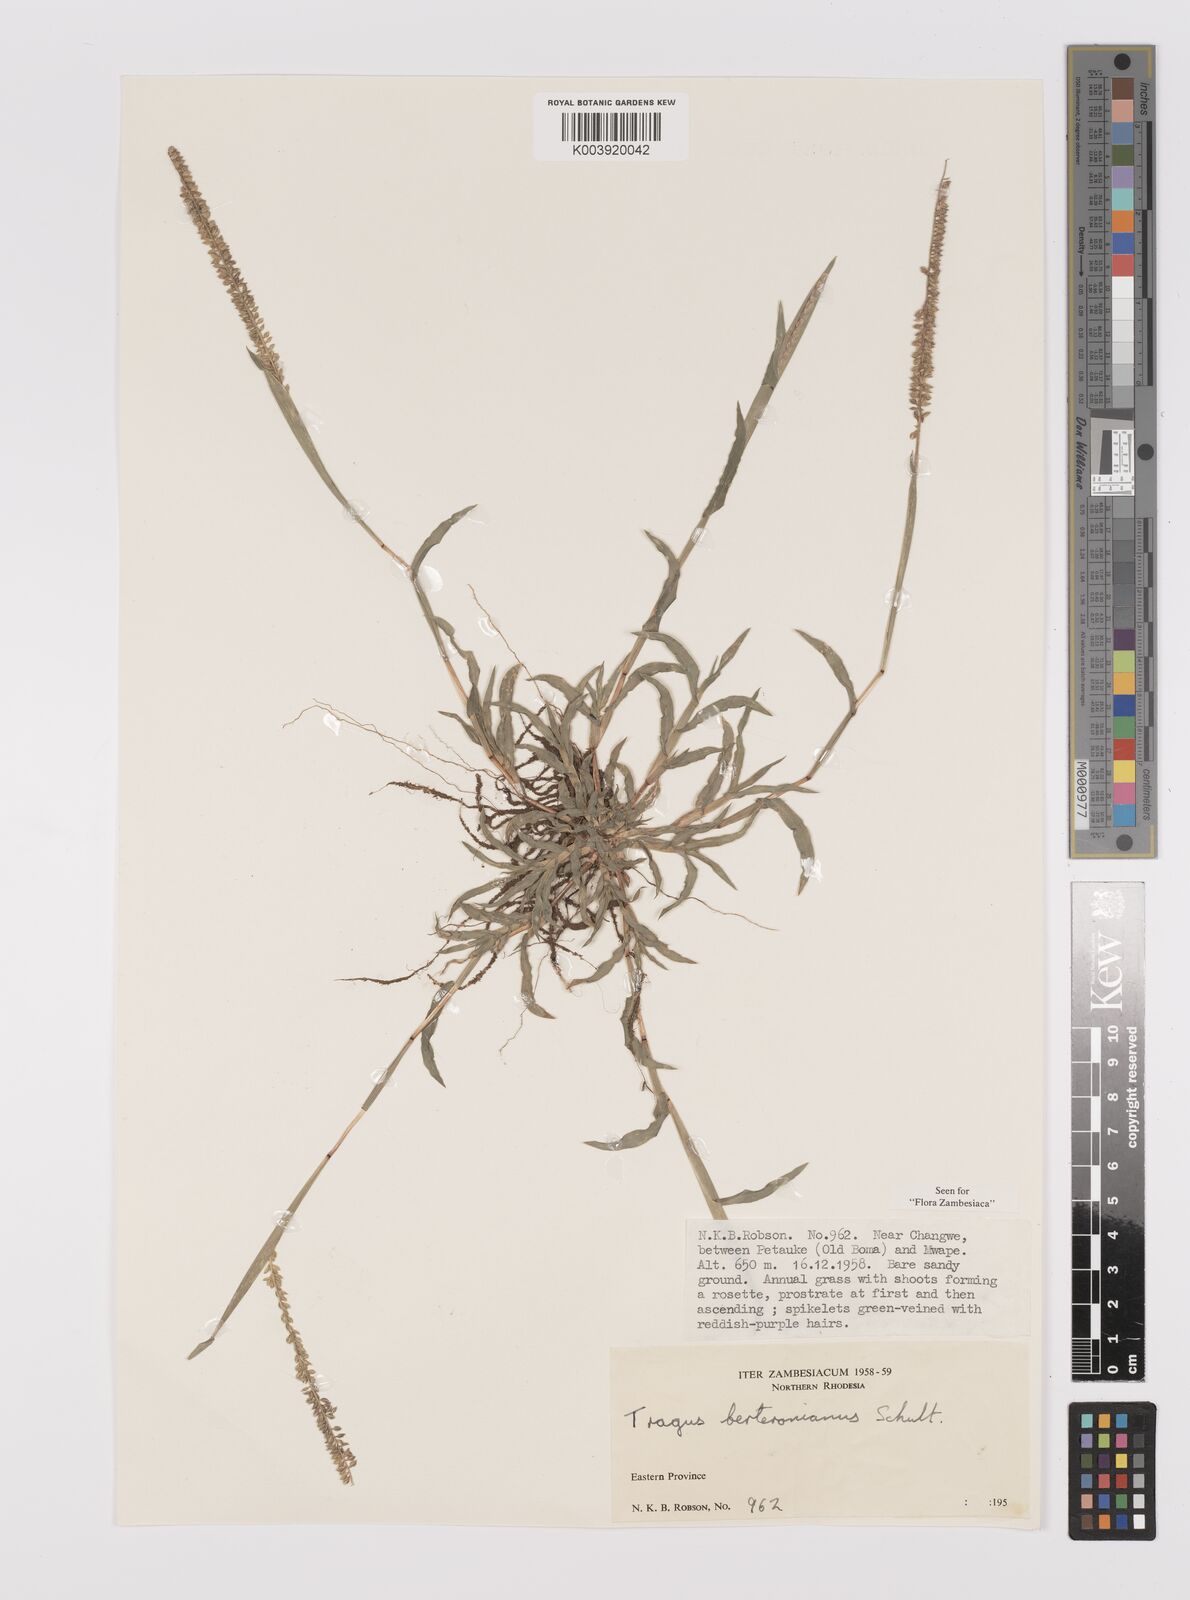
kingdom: Plantae
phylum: Tracheophyta
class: Liliopsida
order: Poales
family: Poaceae
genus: Tragus
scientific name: Tragus berteronianus
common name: African bur-grass
